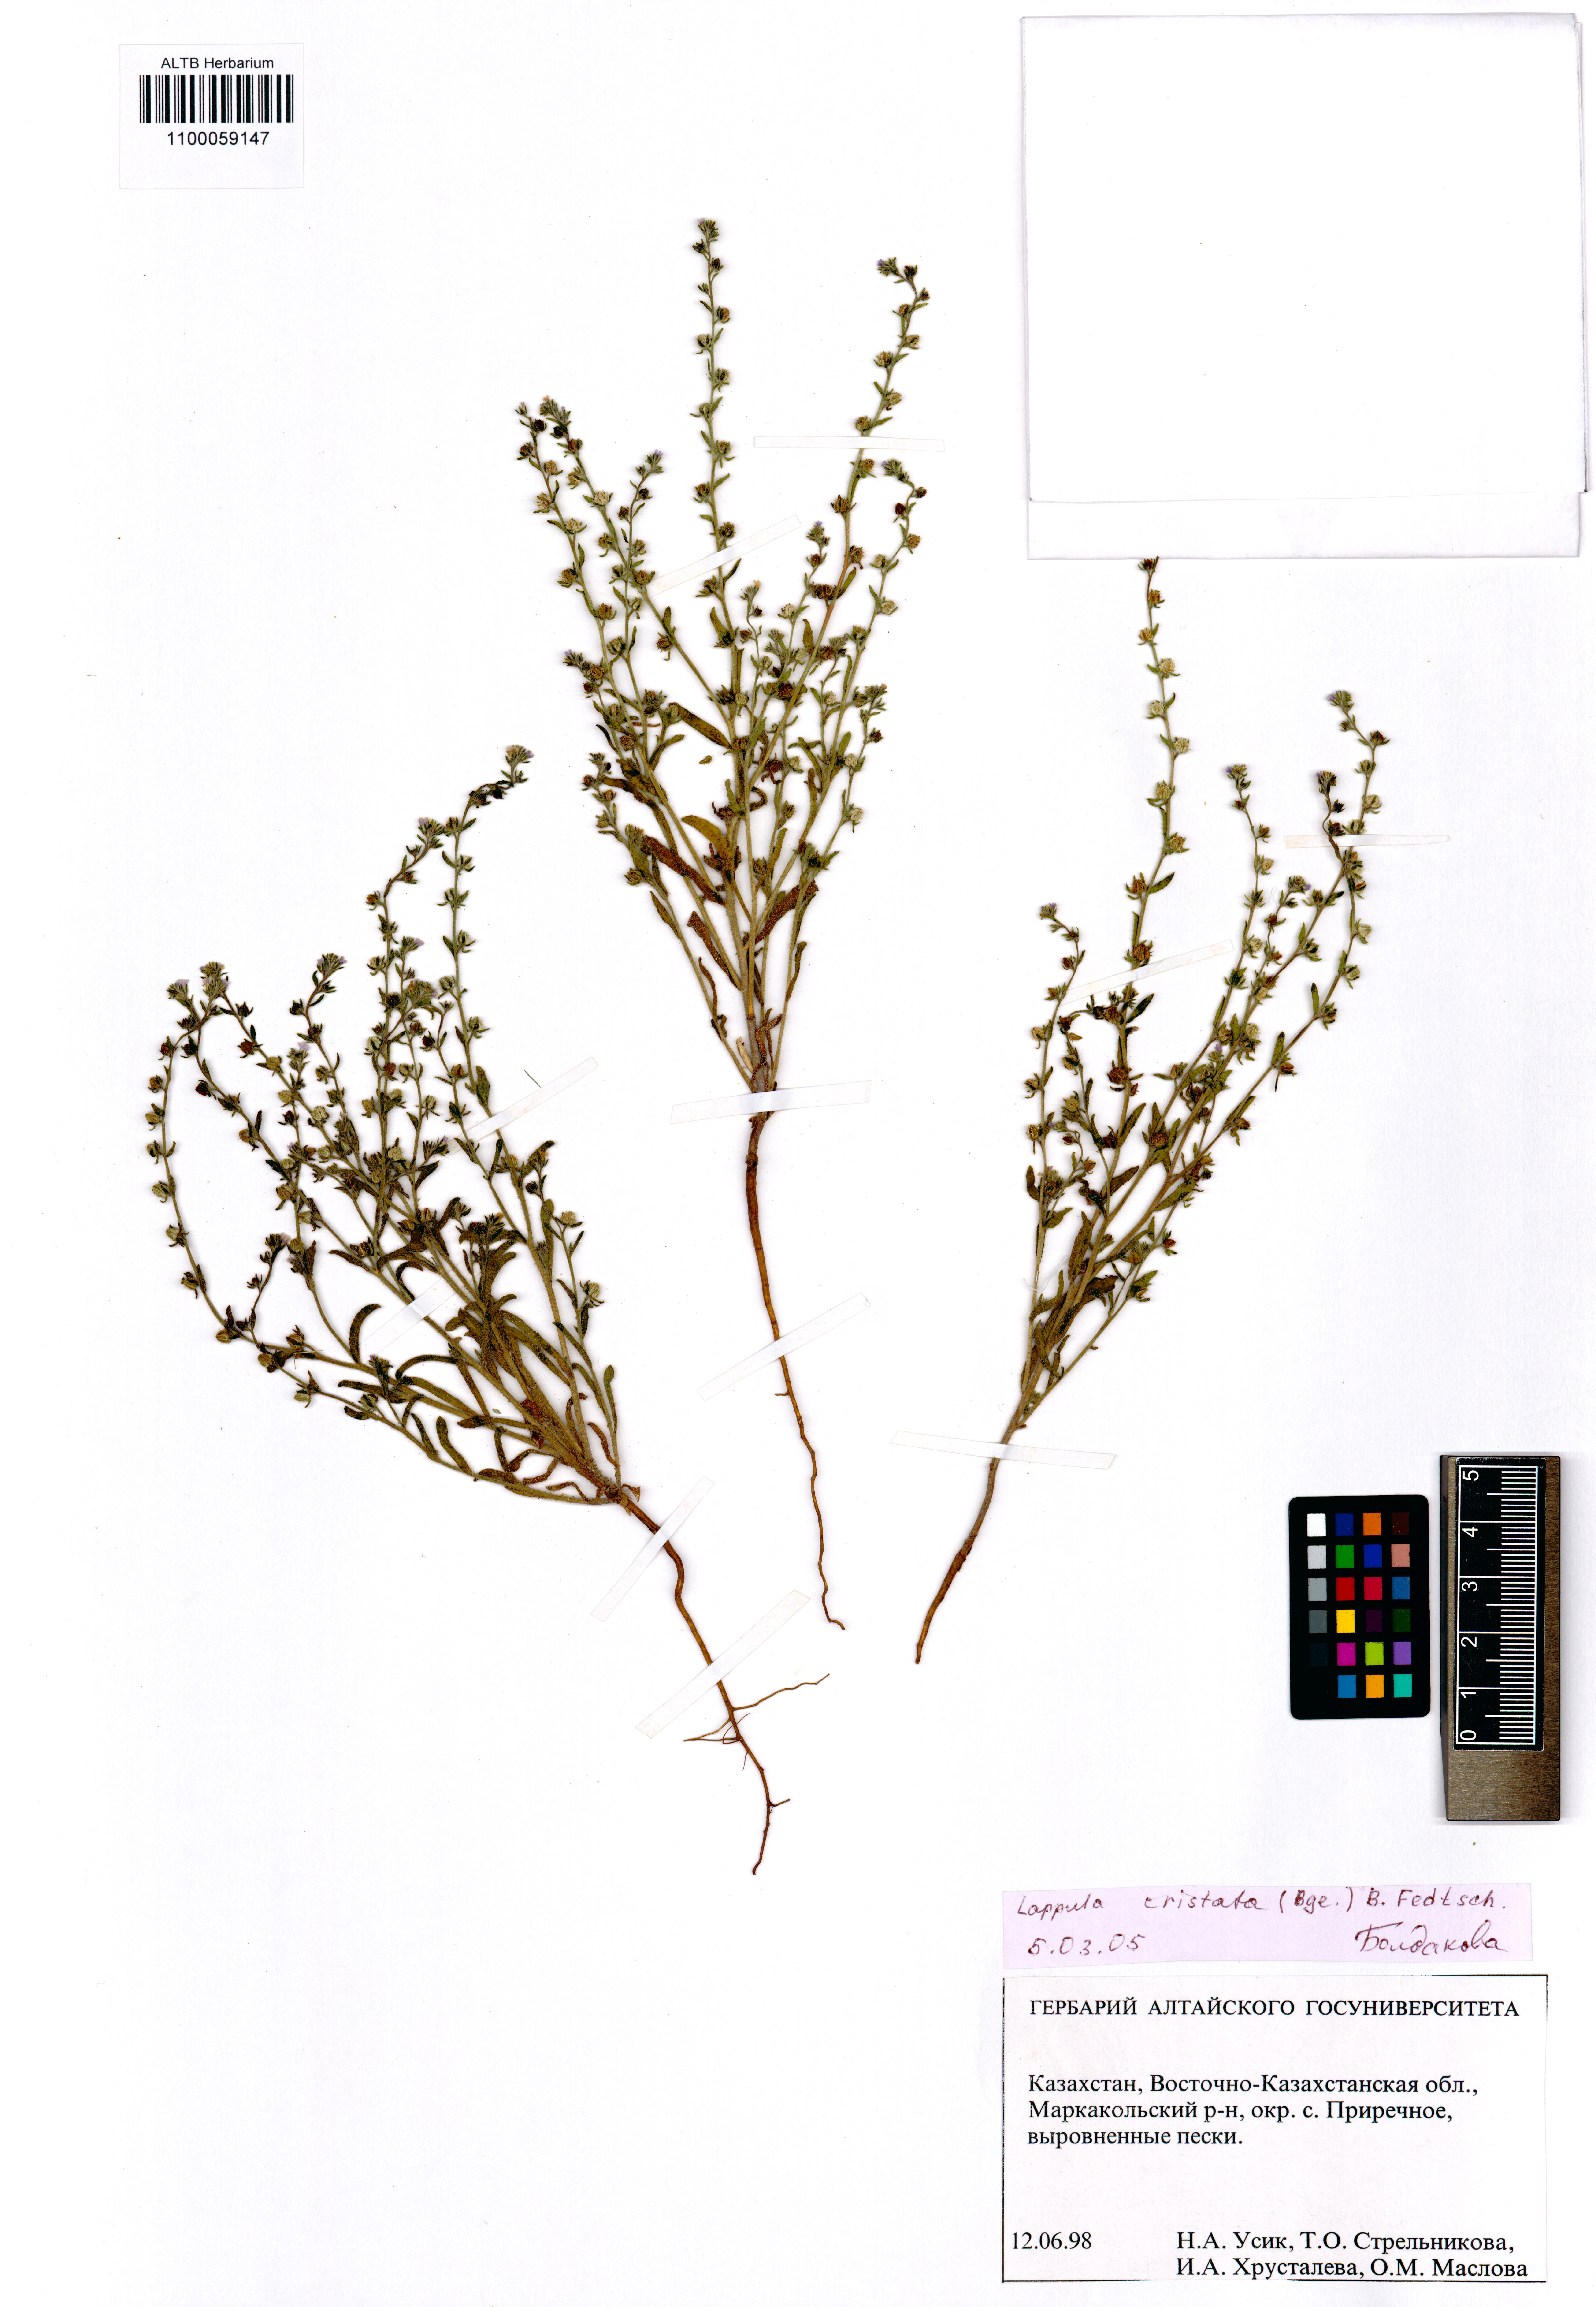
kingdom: Plantae
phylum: Tracheophyta
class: Magnoliopsida
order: Boraginales
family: Boraginaceae
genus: Paracaryum
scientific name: Paracaryum cristatum
